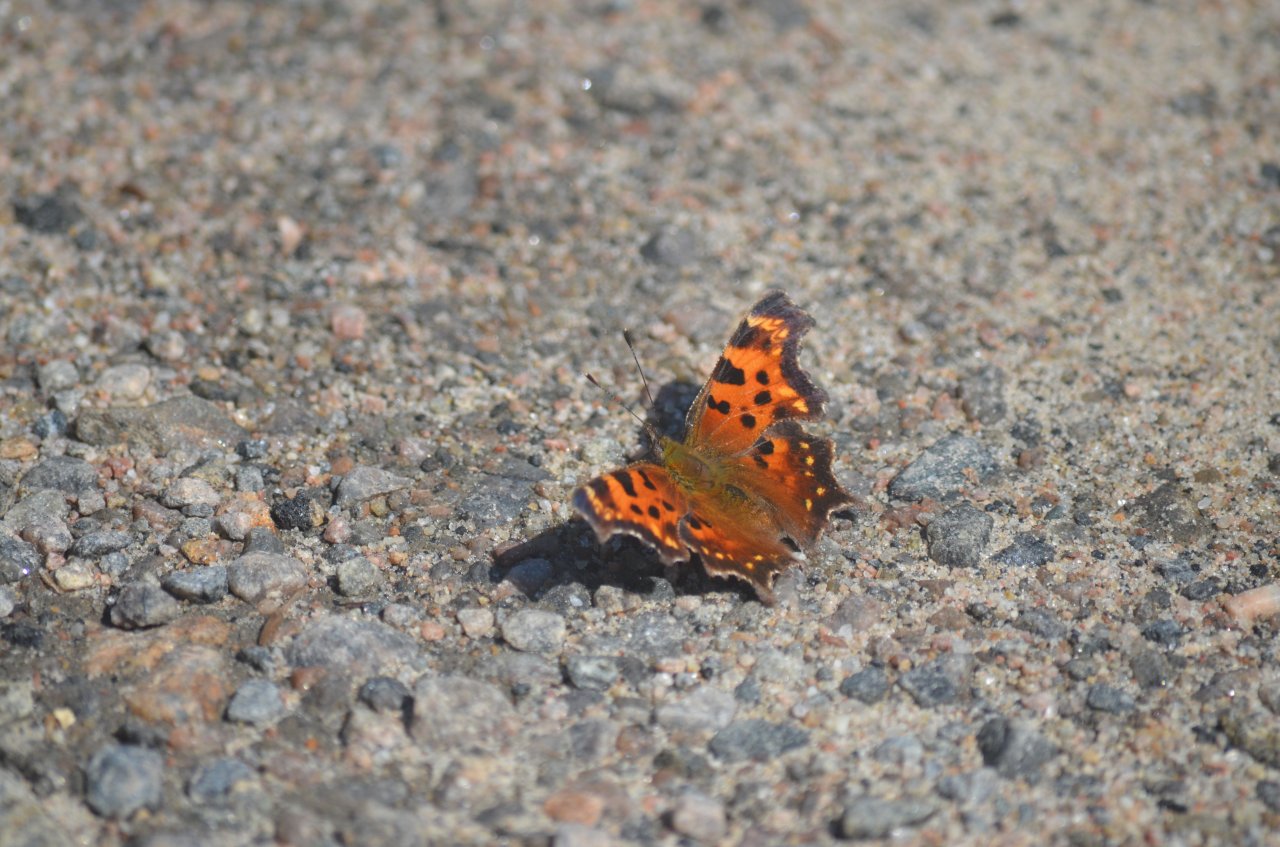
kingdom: Animalia
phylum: Arthropoda
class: Insecta
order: Lepidoptera
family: Nymphalidae
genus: Polygonia
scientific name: Polygonia faunus
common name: Green Comma
